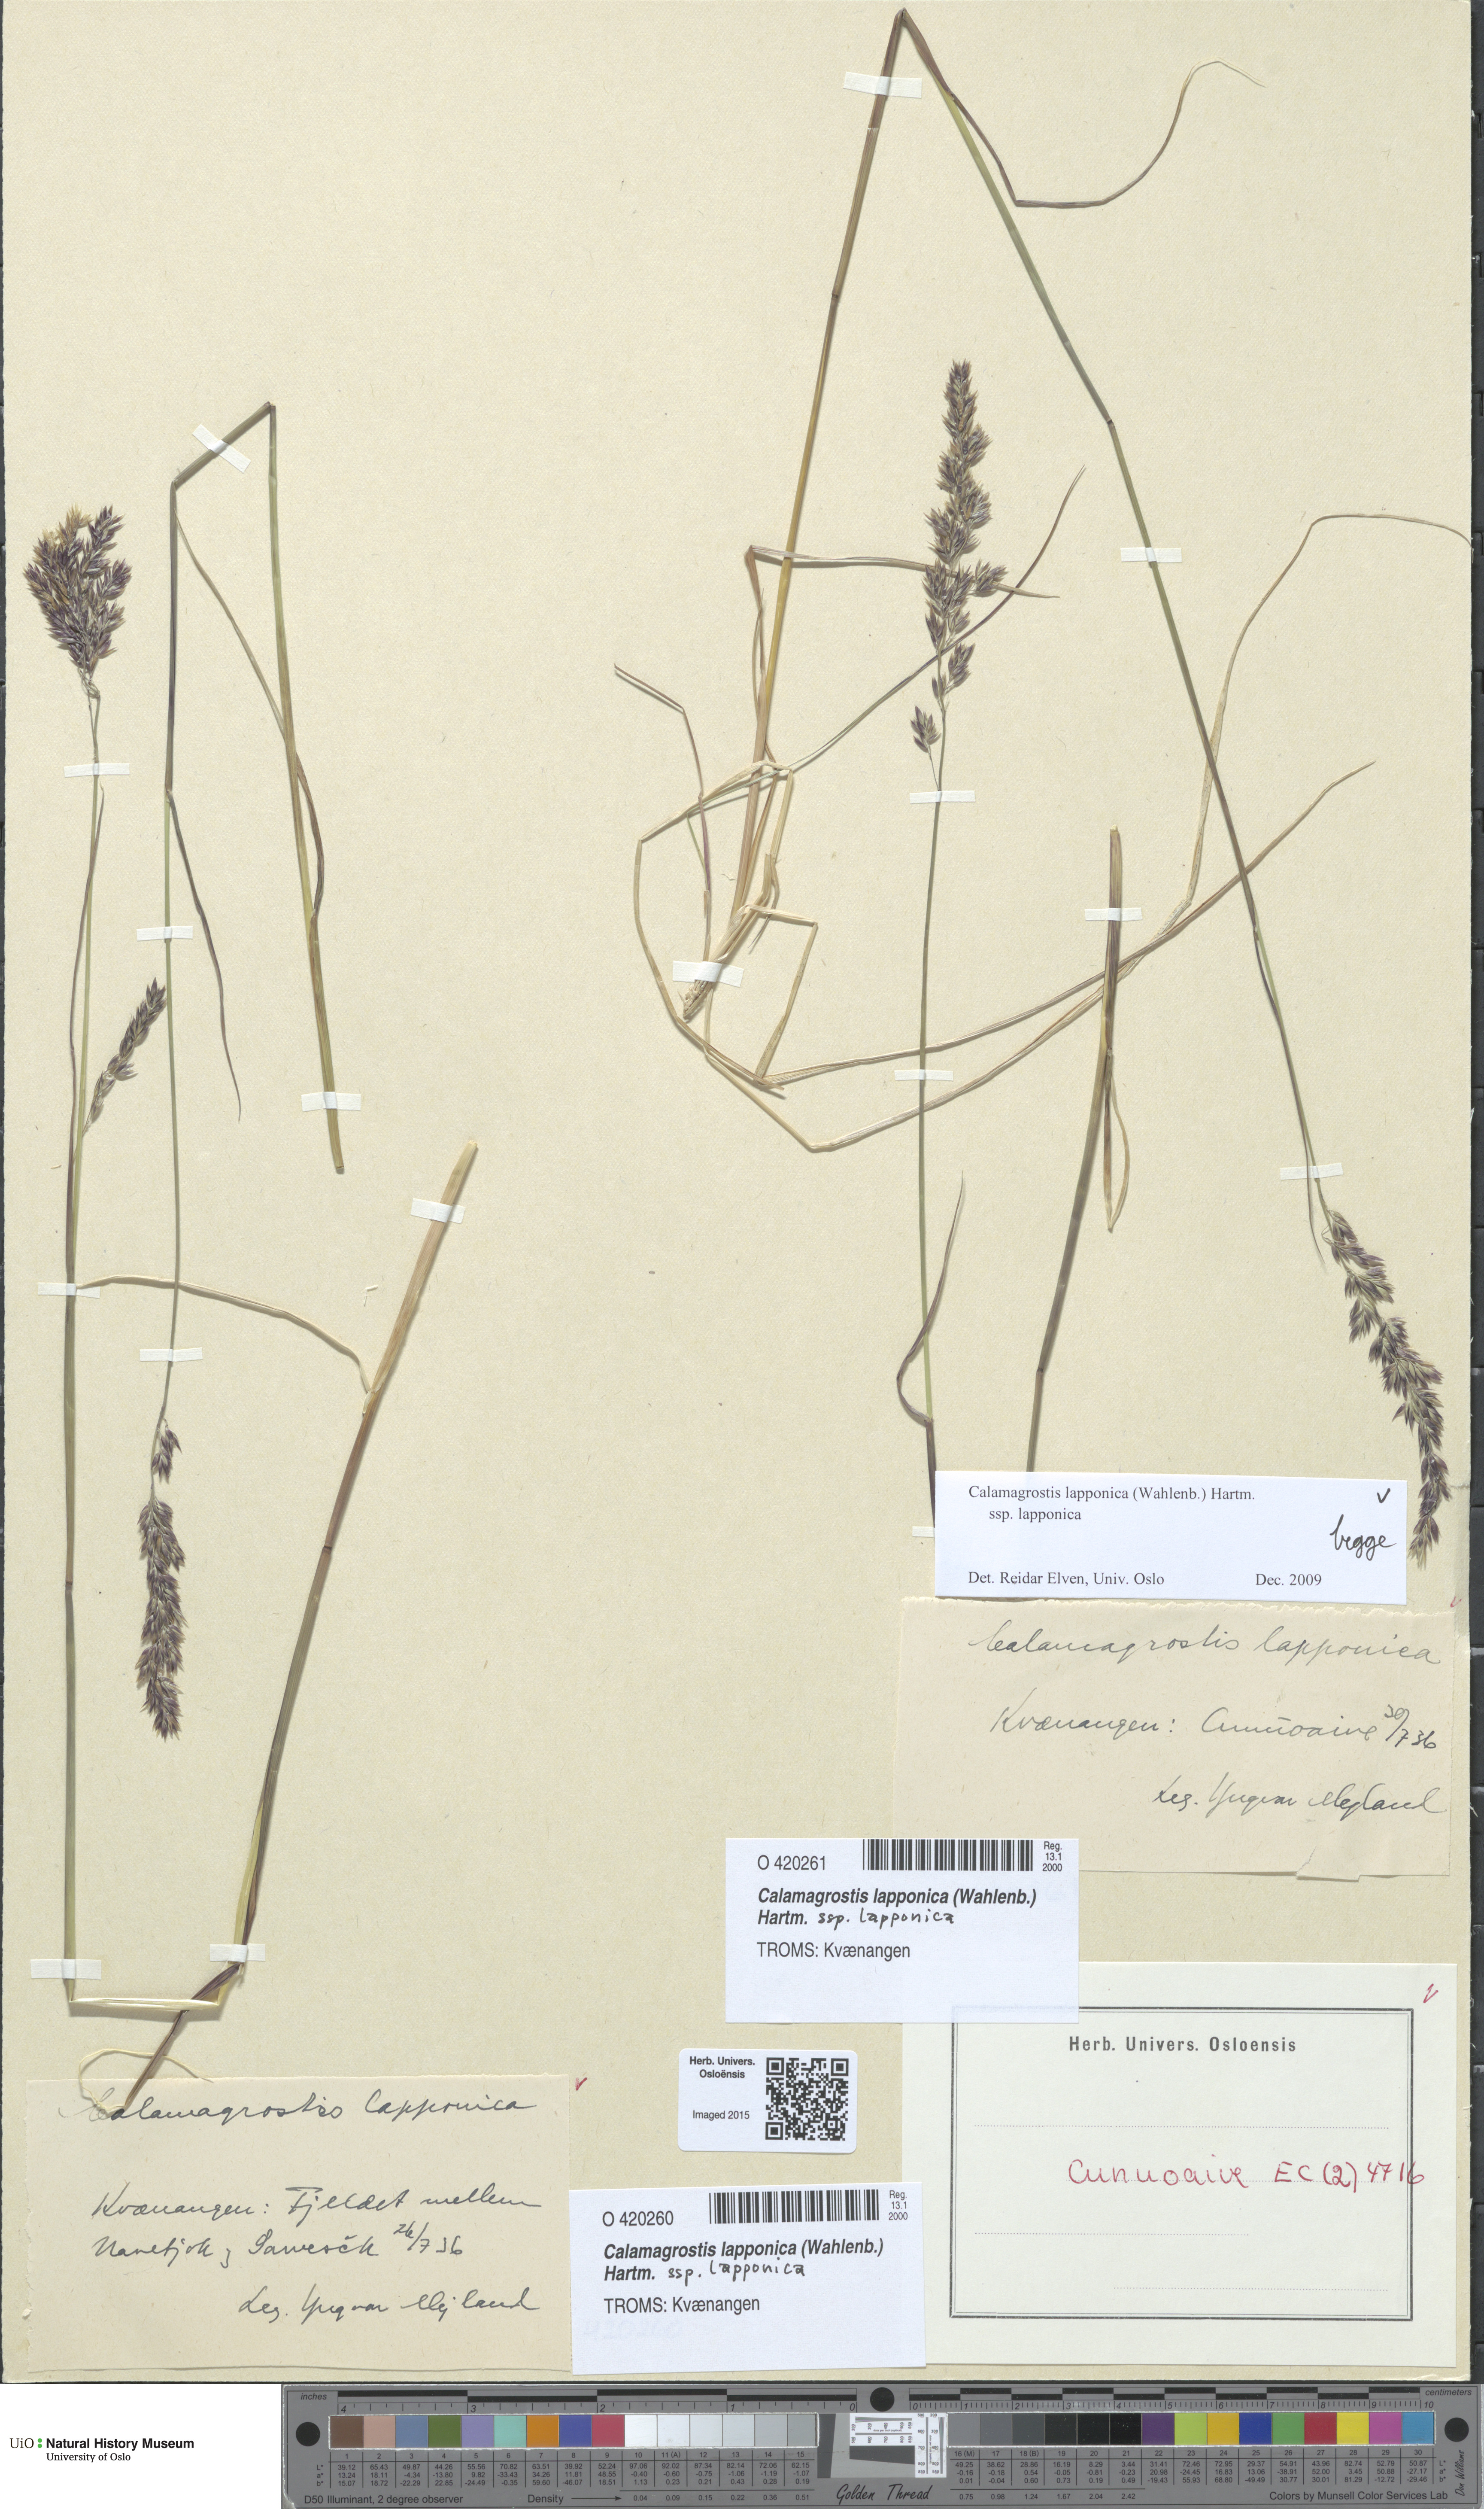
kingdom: Plantae
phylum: Tracheophyta
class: Liliopsida
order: Poales
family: Poaceae
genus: Calamagrostis
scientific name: Calamagrostis lapponica
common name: Lapland reedgrass
